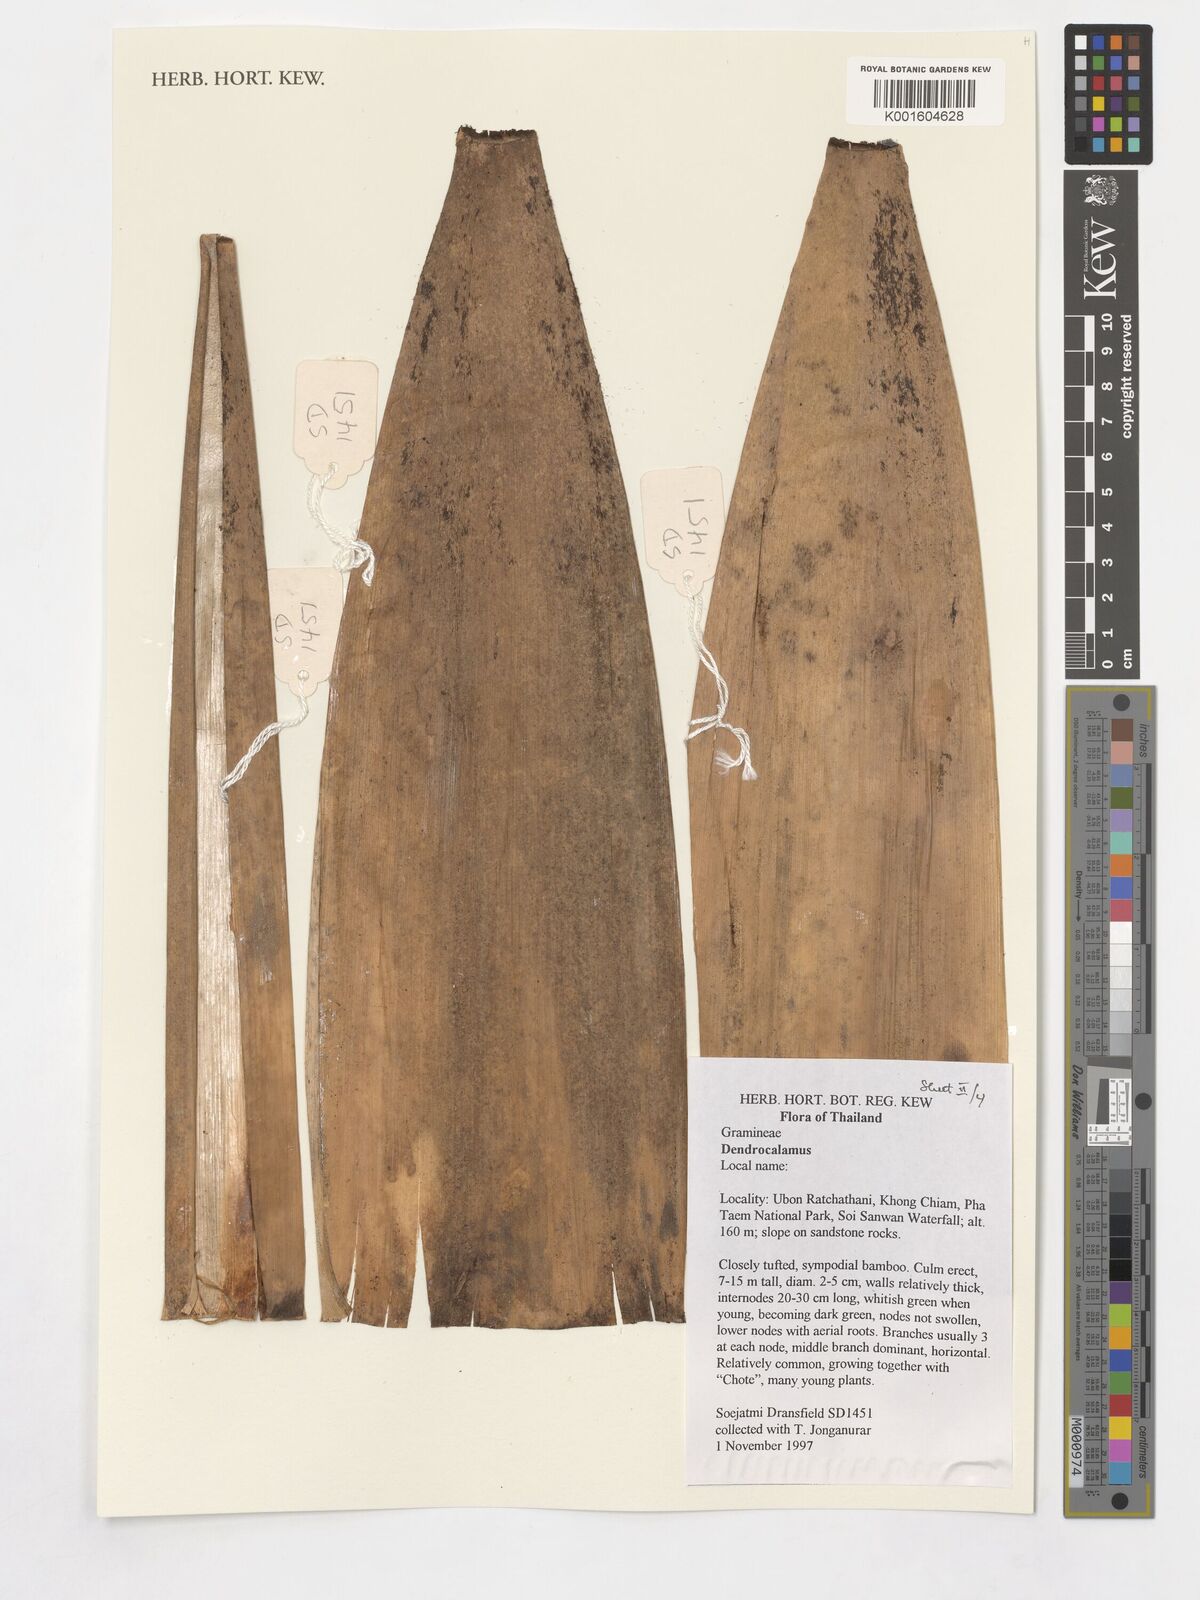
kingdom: Plantae
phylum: Tracheophyta
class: Liliopsida
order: Poales
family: Poaceae
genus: Dendrocalamus
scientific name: Dendrocalamus
